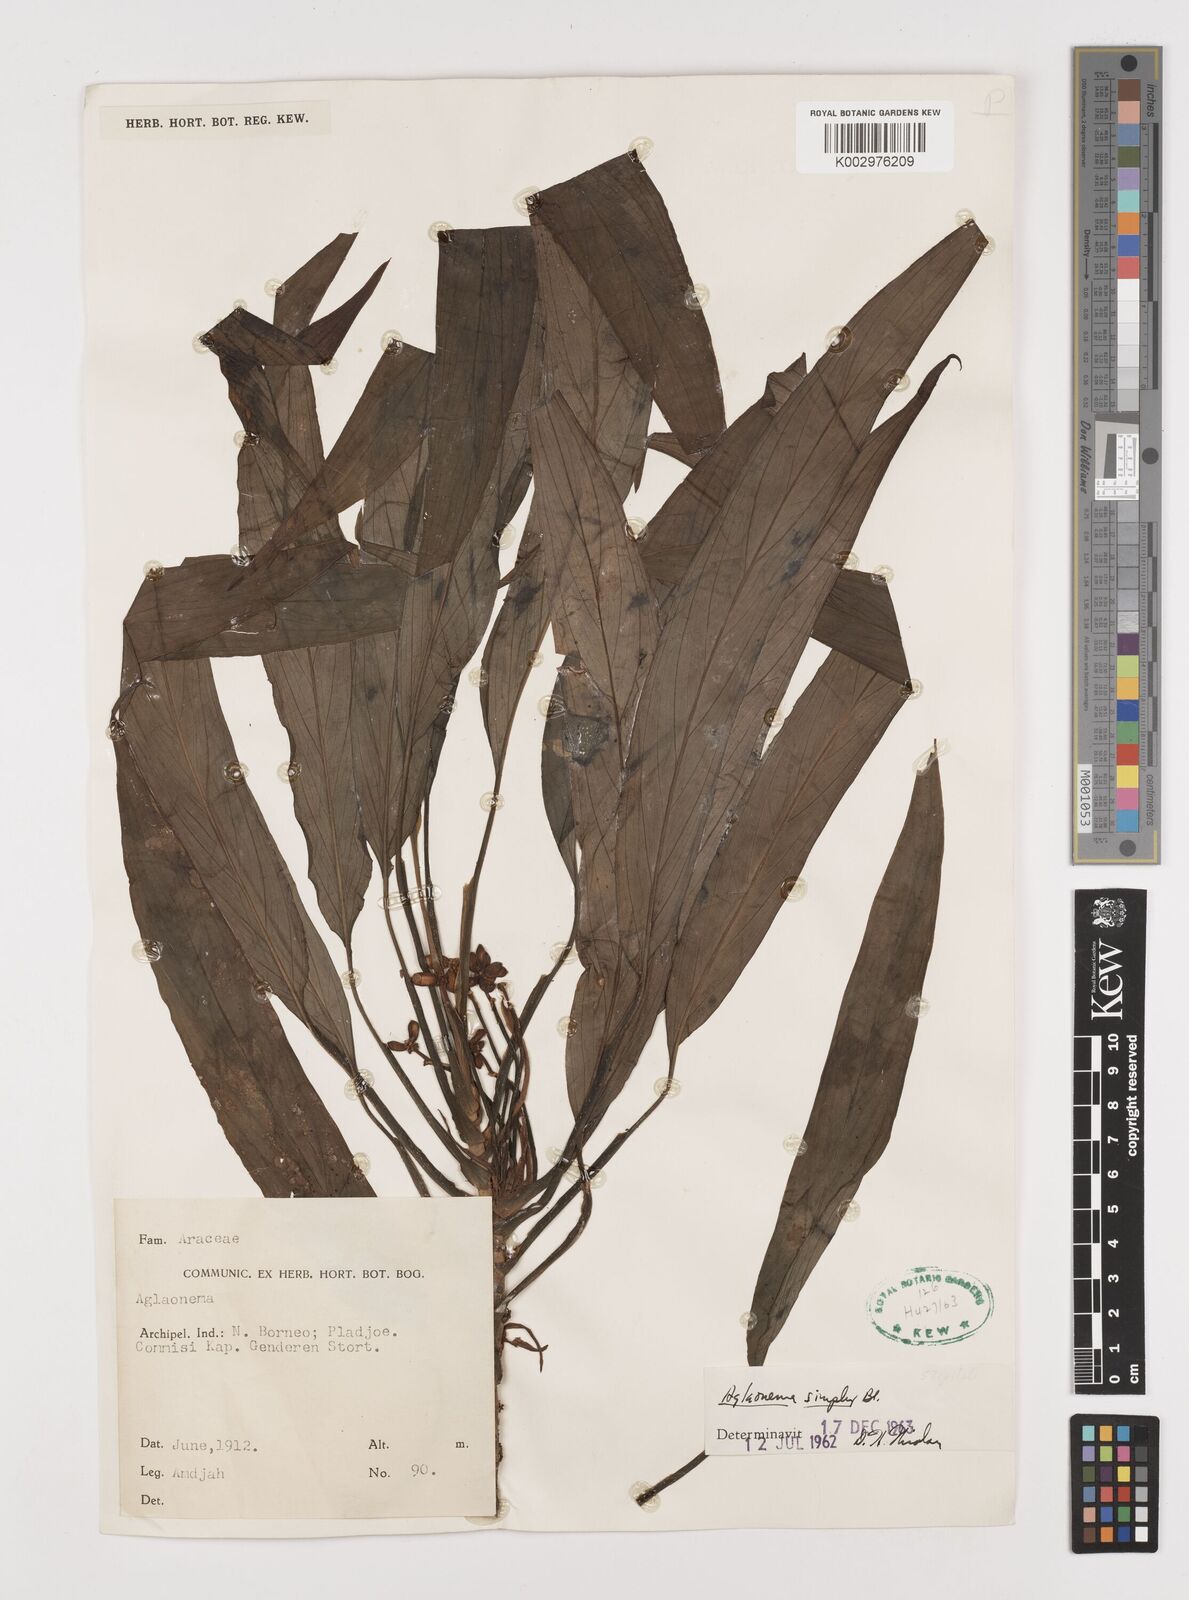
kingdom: Plantae
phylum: Tracheophyta
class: Liliopsida
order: Alismatales
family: Araceae
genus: Aglaonema
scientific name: Aglaonema simplex
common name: Malayan-sword
